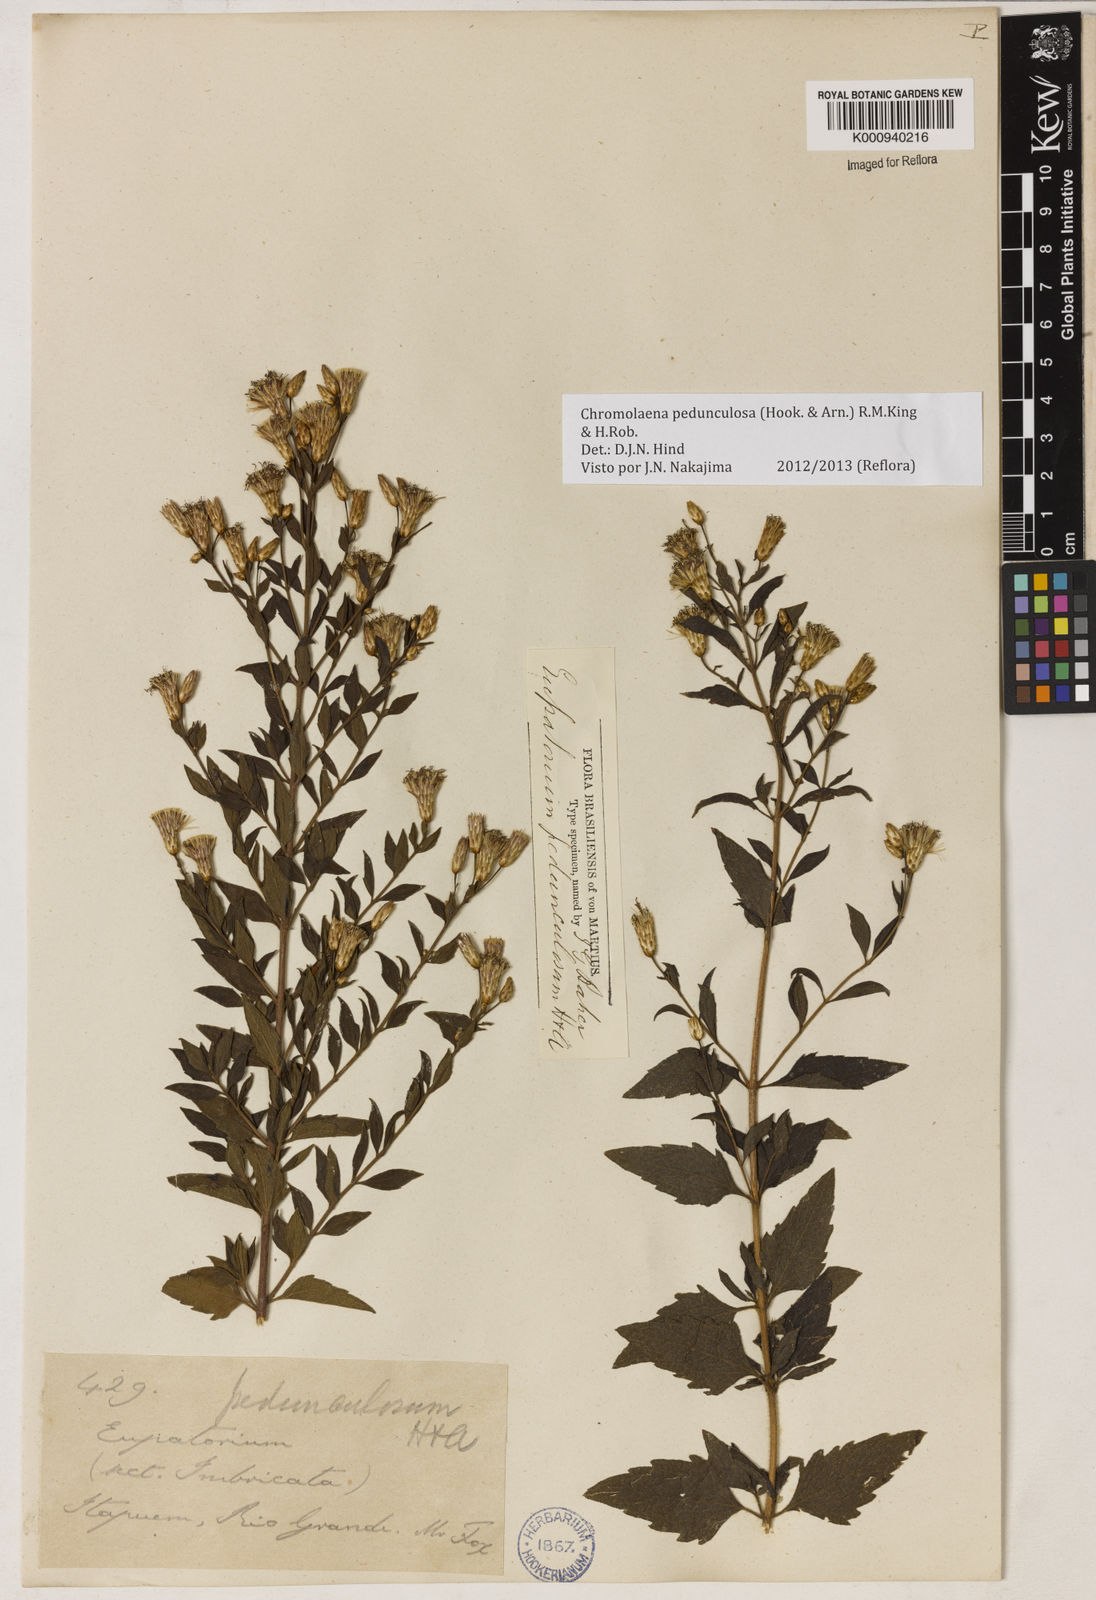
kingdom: Plantae
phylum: Tracheophyta
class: Magnoliopsida
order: Asterales
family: Asteraceae
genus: Chromolaena
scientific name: Chromolaena pedunculosa
